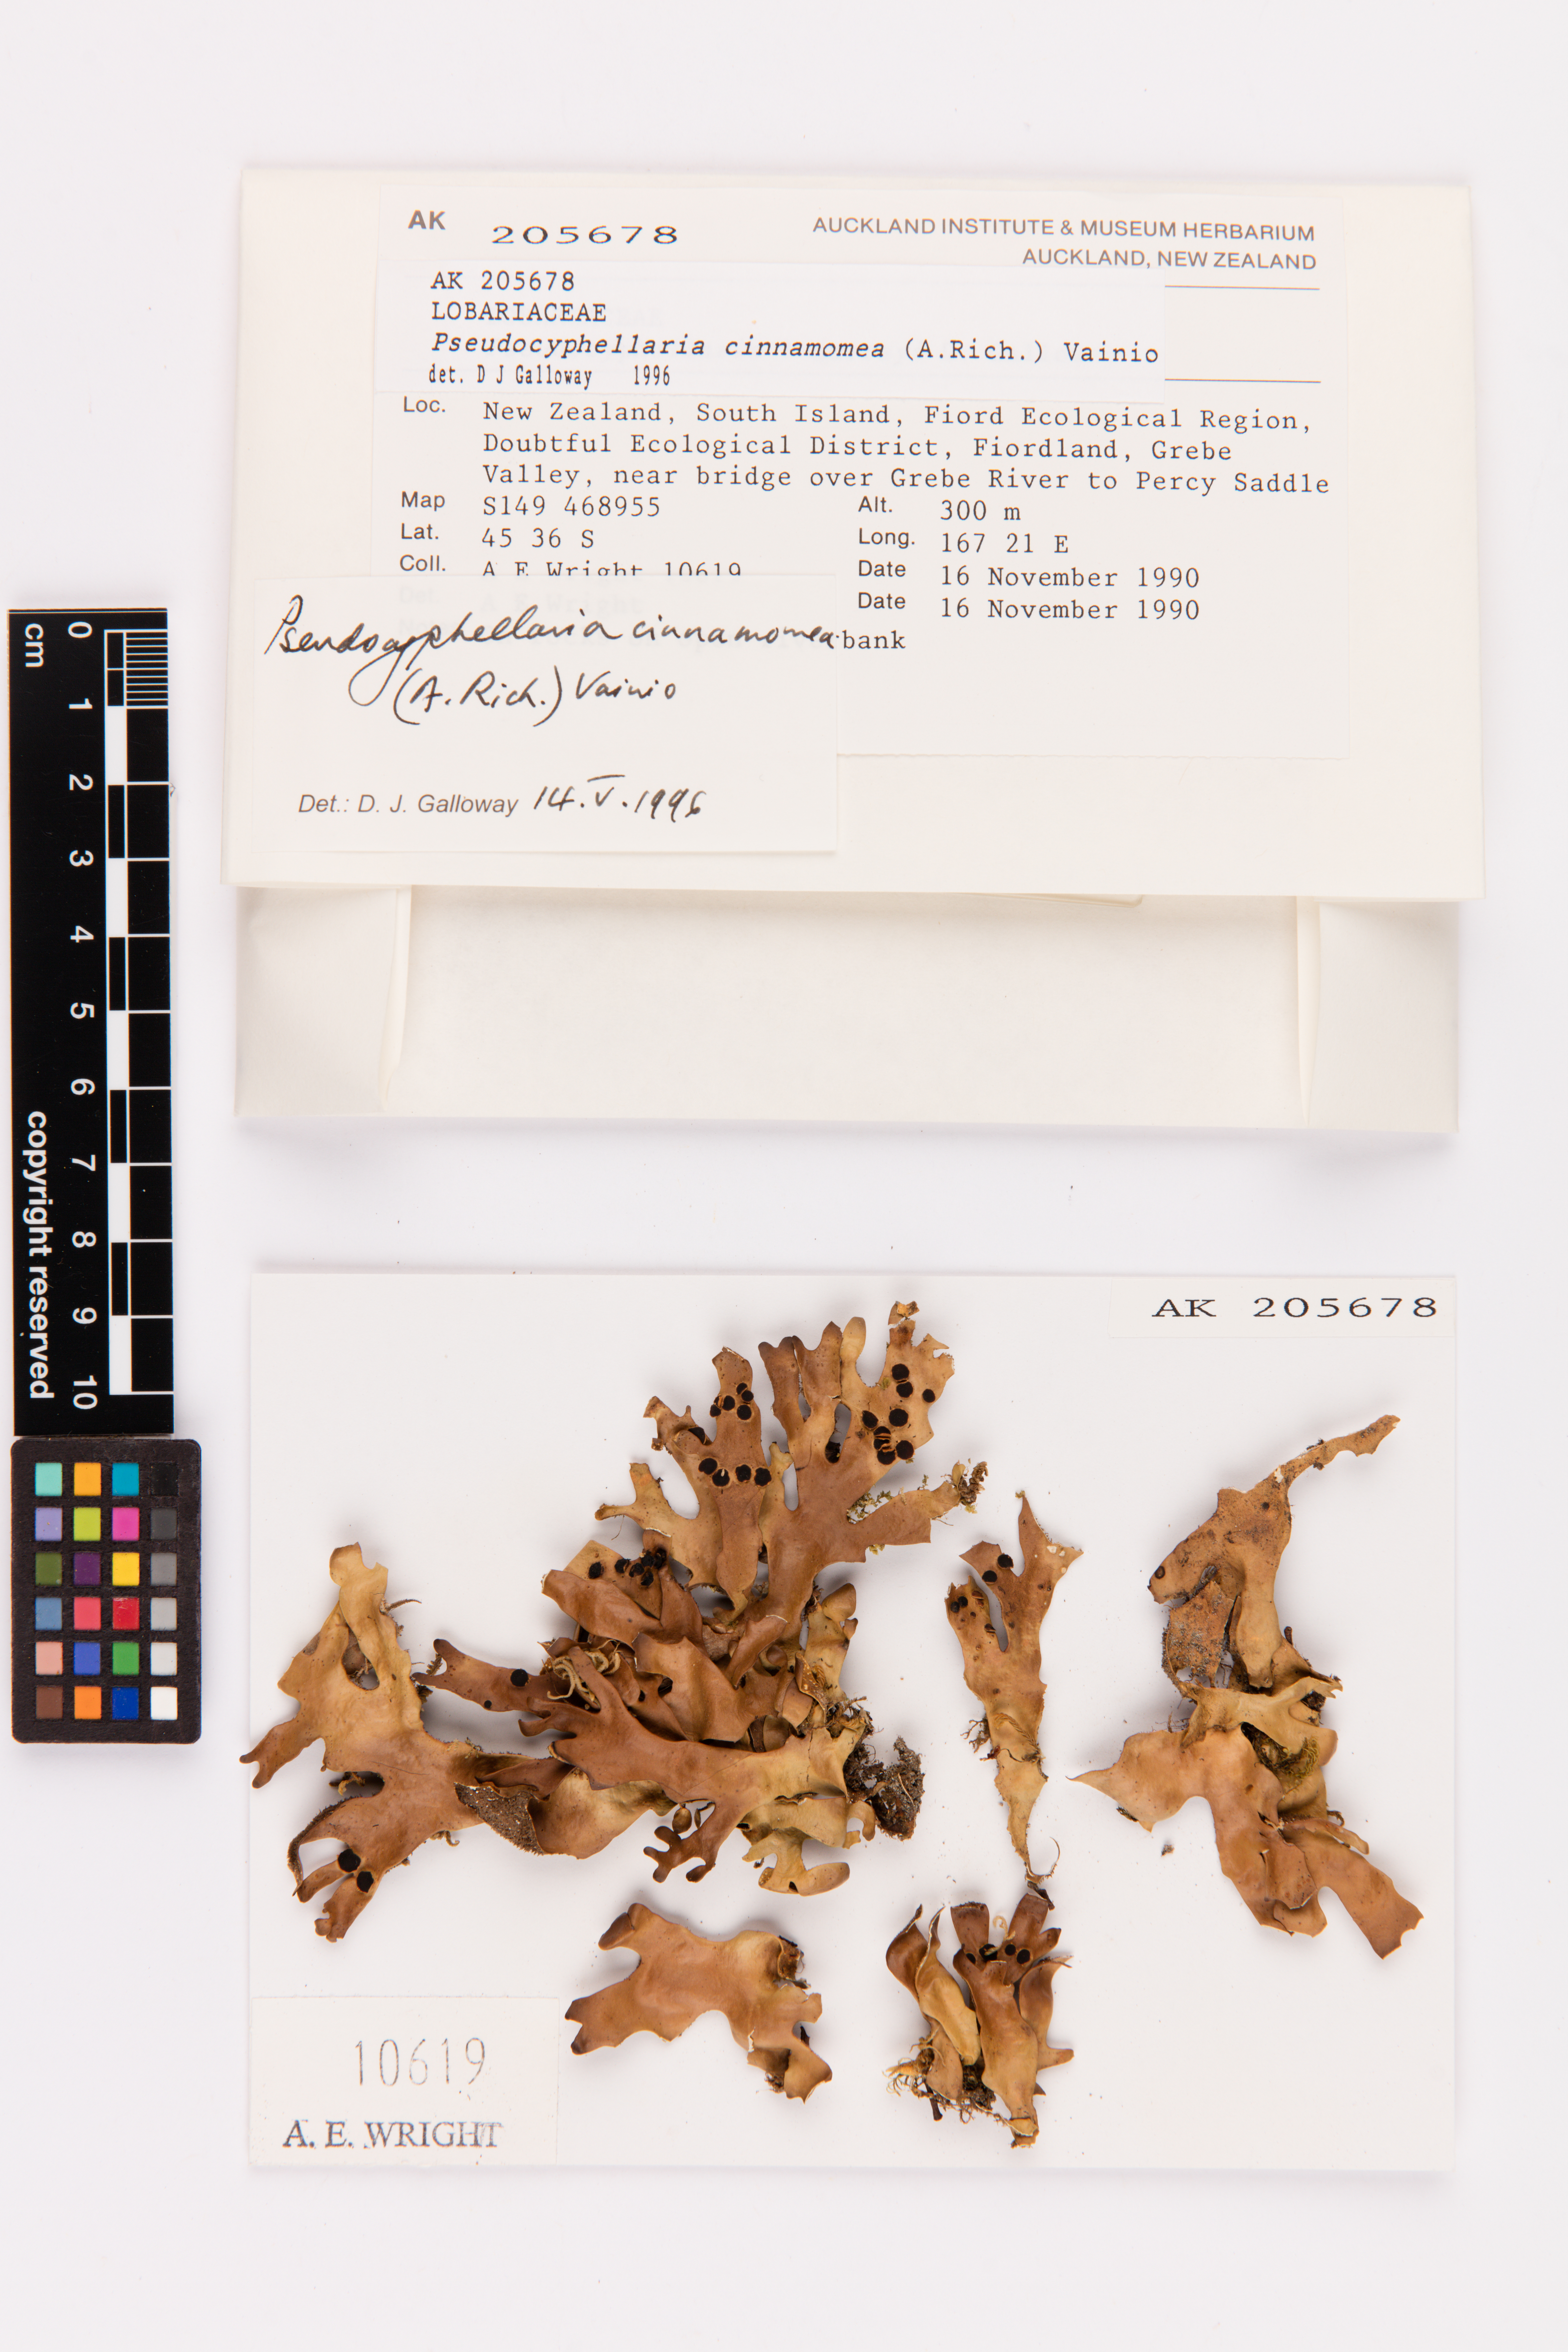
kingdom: Fungi
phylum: Ascomycota
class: Lecanoromycetes
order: Peltigerales
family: Lobariaceae
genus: Pseudocyphellaria
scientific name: Pseudocyphellaria cinnamomea
